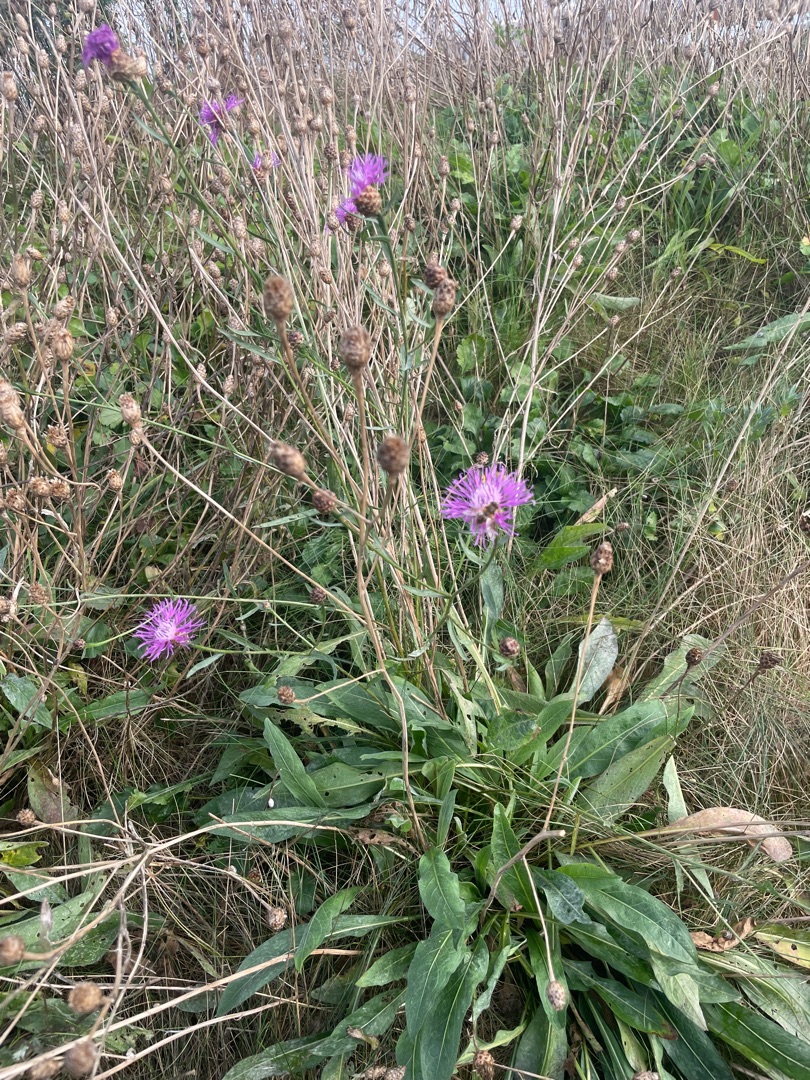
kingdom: Plantae
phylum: Tracheophyta
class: Magnoliopsida
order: Asterales
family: Asteraceae
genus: Centaurea
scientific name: Centaurea jacea
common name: Almindelig knopurt
